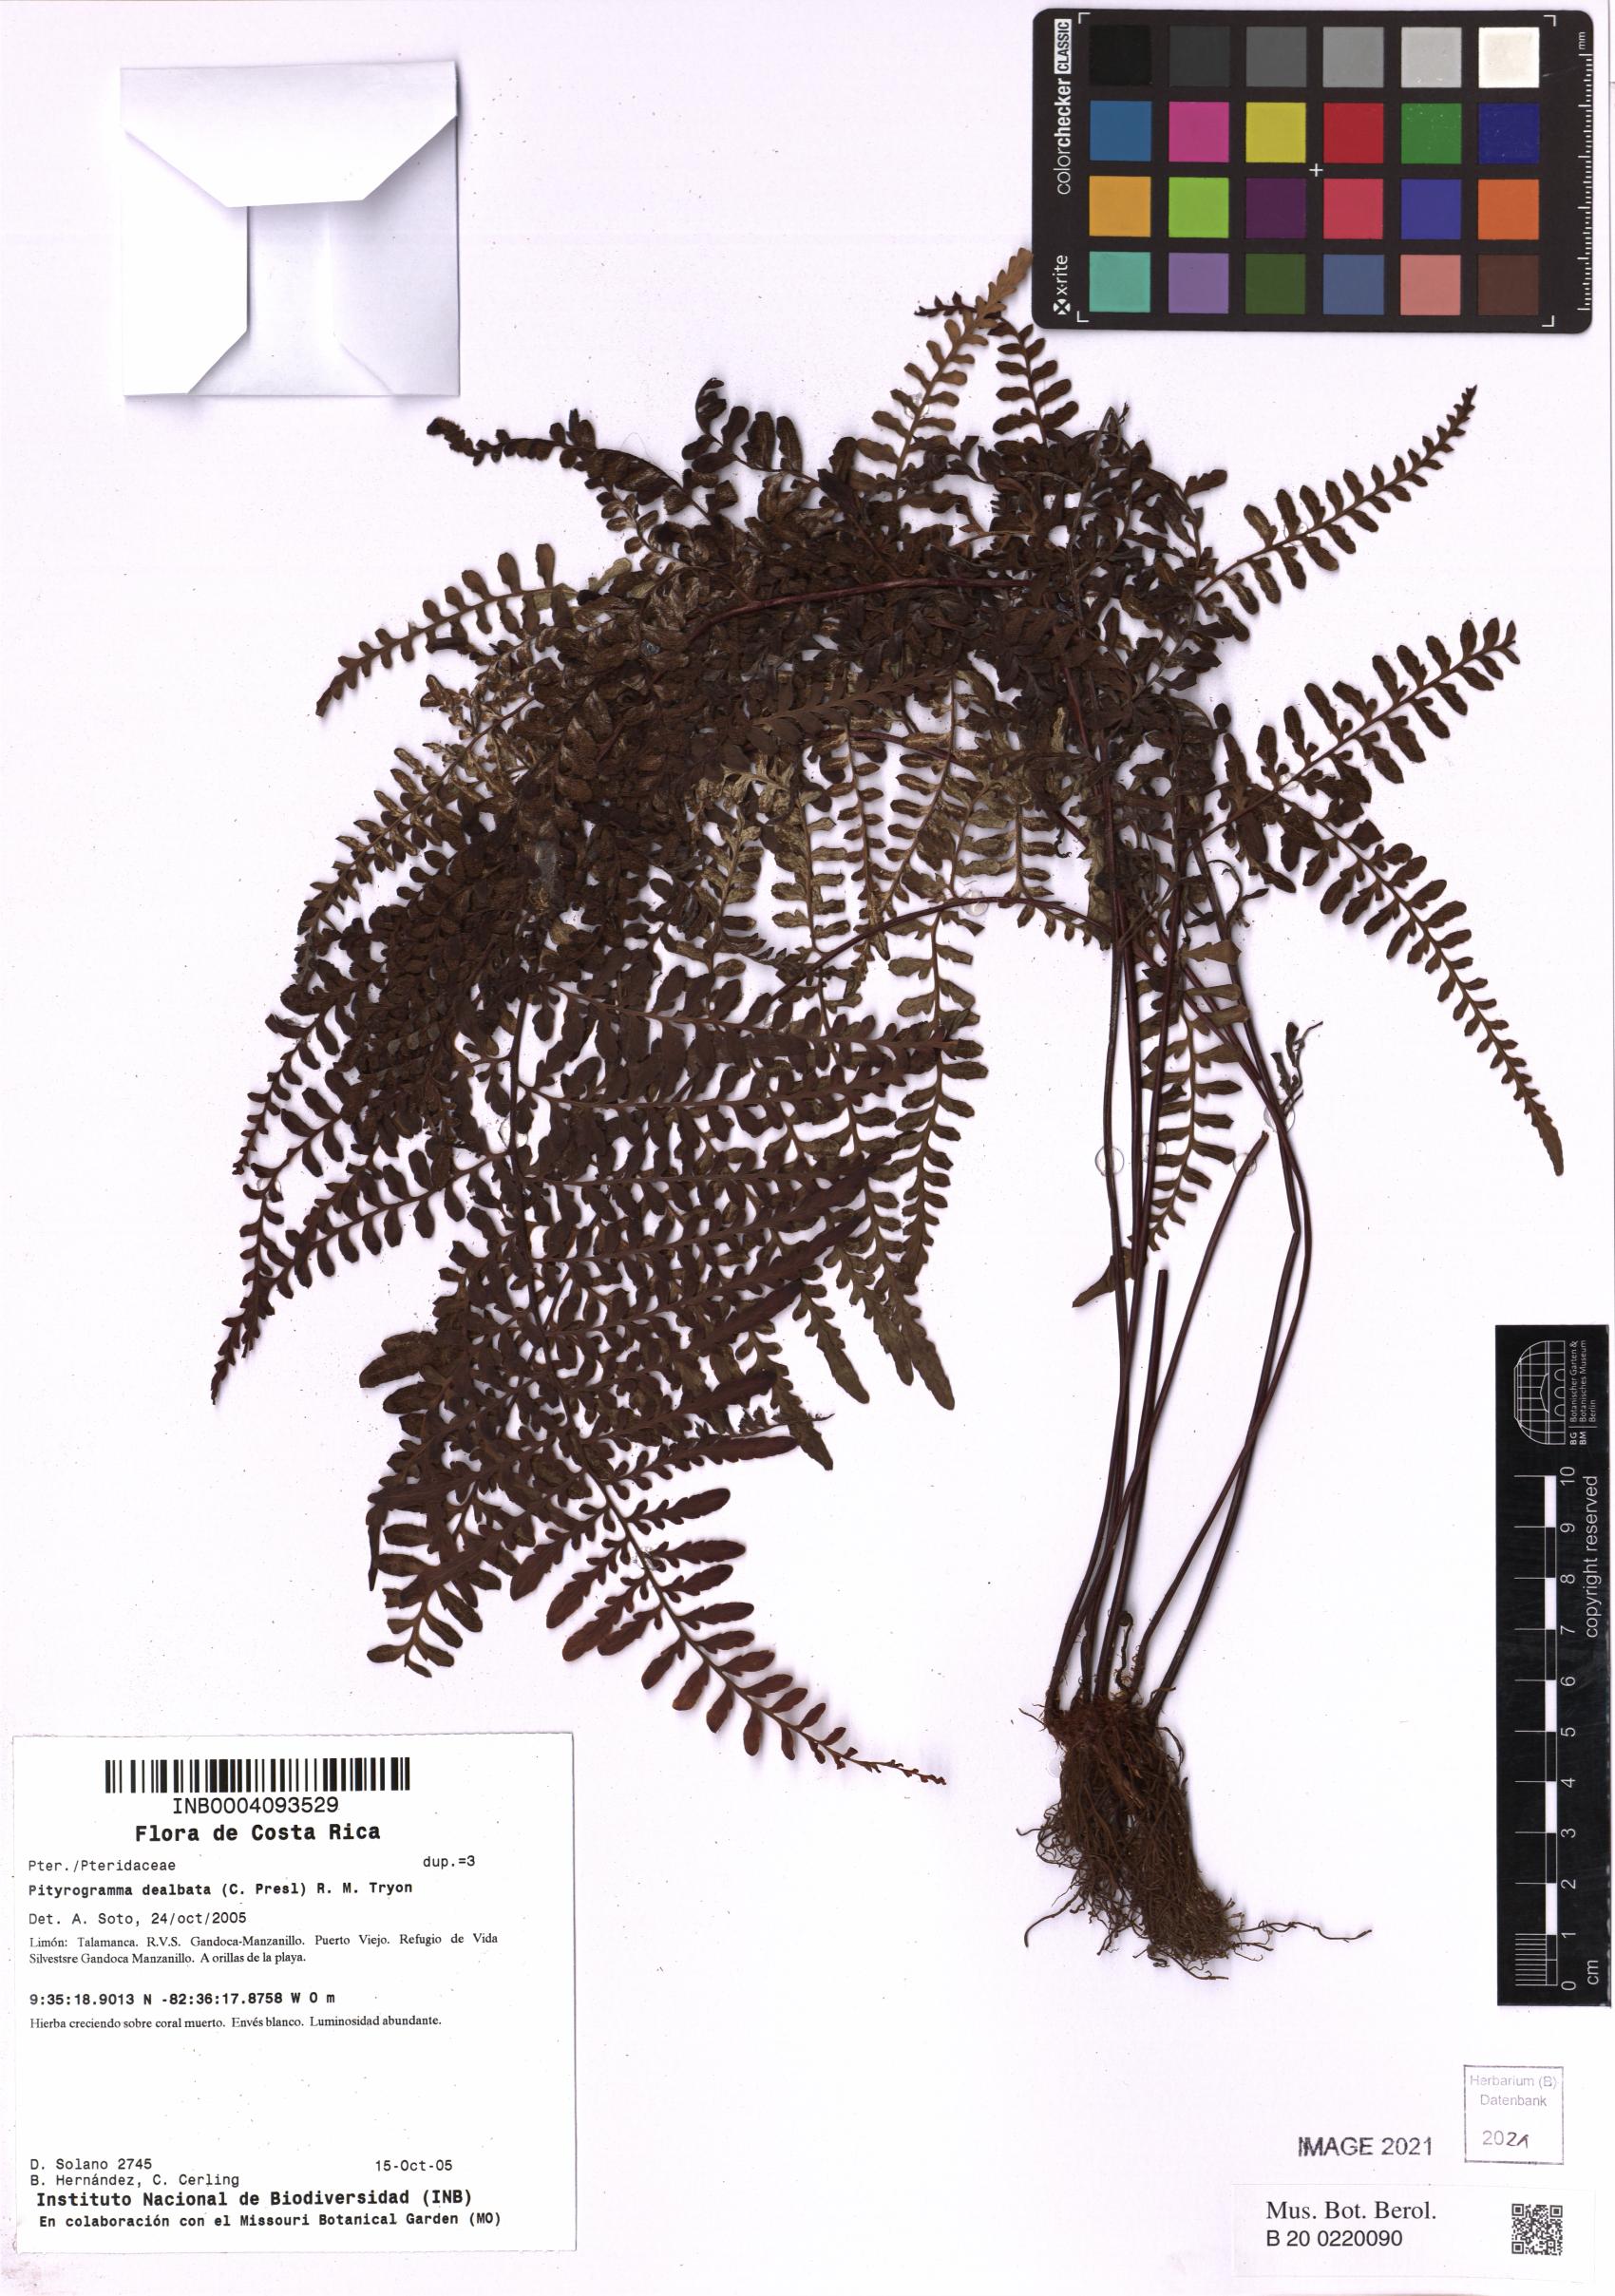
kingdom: Plantae
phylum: Tracheophyta
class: Polypodiopsida
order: Polypodiales
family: Pteridaceae
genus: Pityrogramma
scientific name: Pityrogramma dealbata
